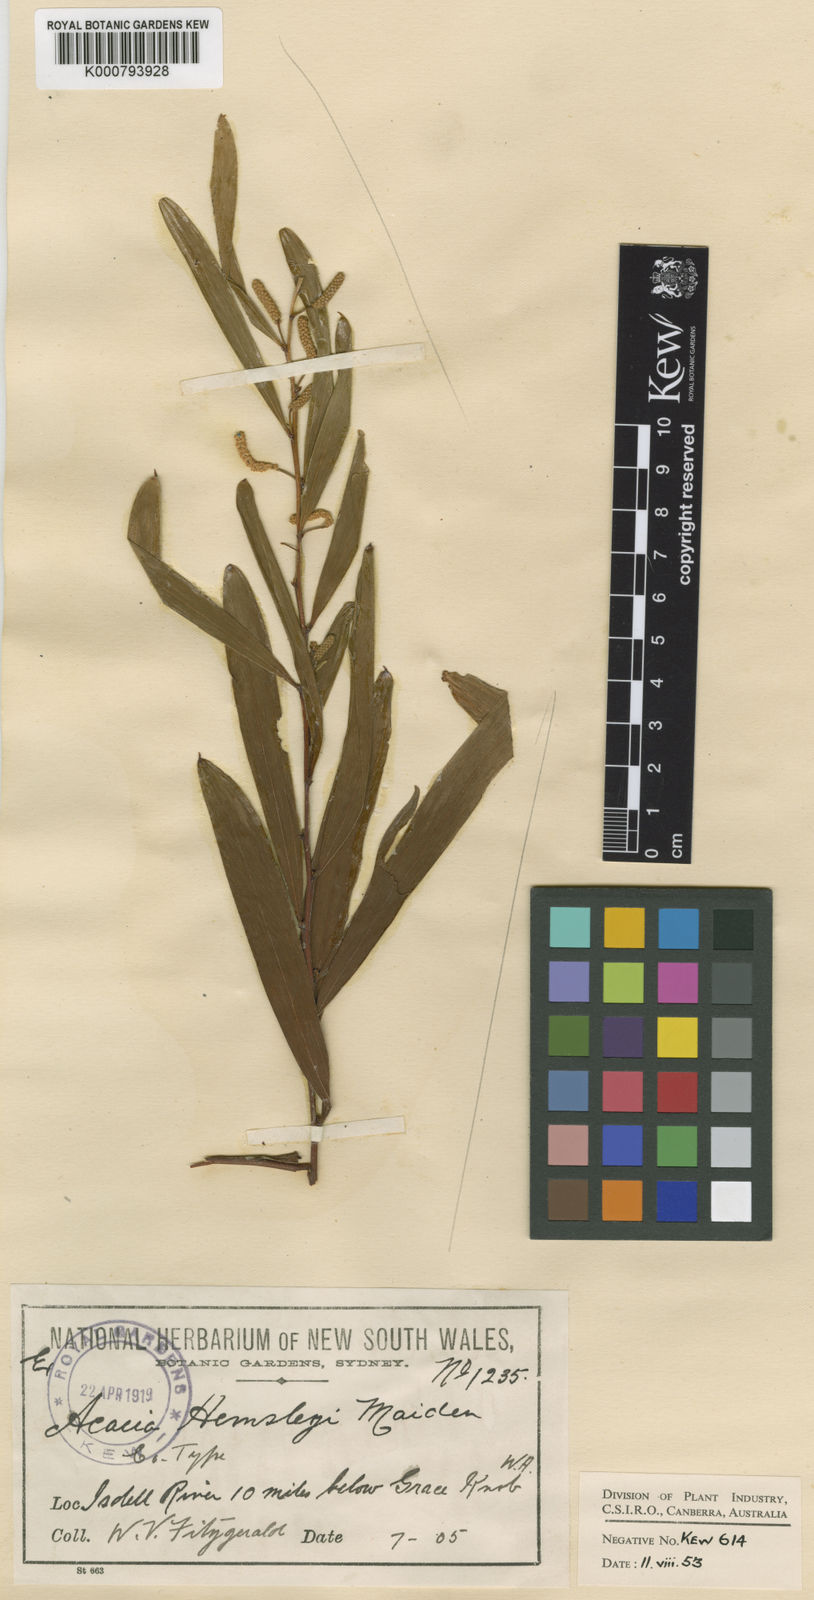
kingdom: Plantae
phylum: Tracheophyta
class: Magnoliopsida
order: Fabales
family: Fabaceae
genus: Acacia
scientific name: Acacia hemsleyi
